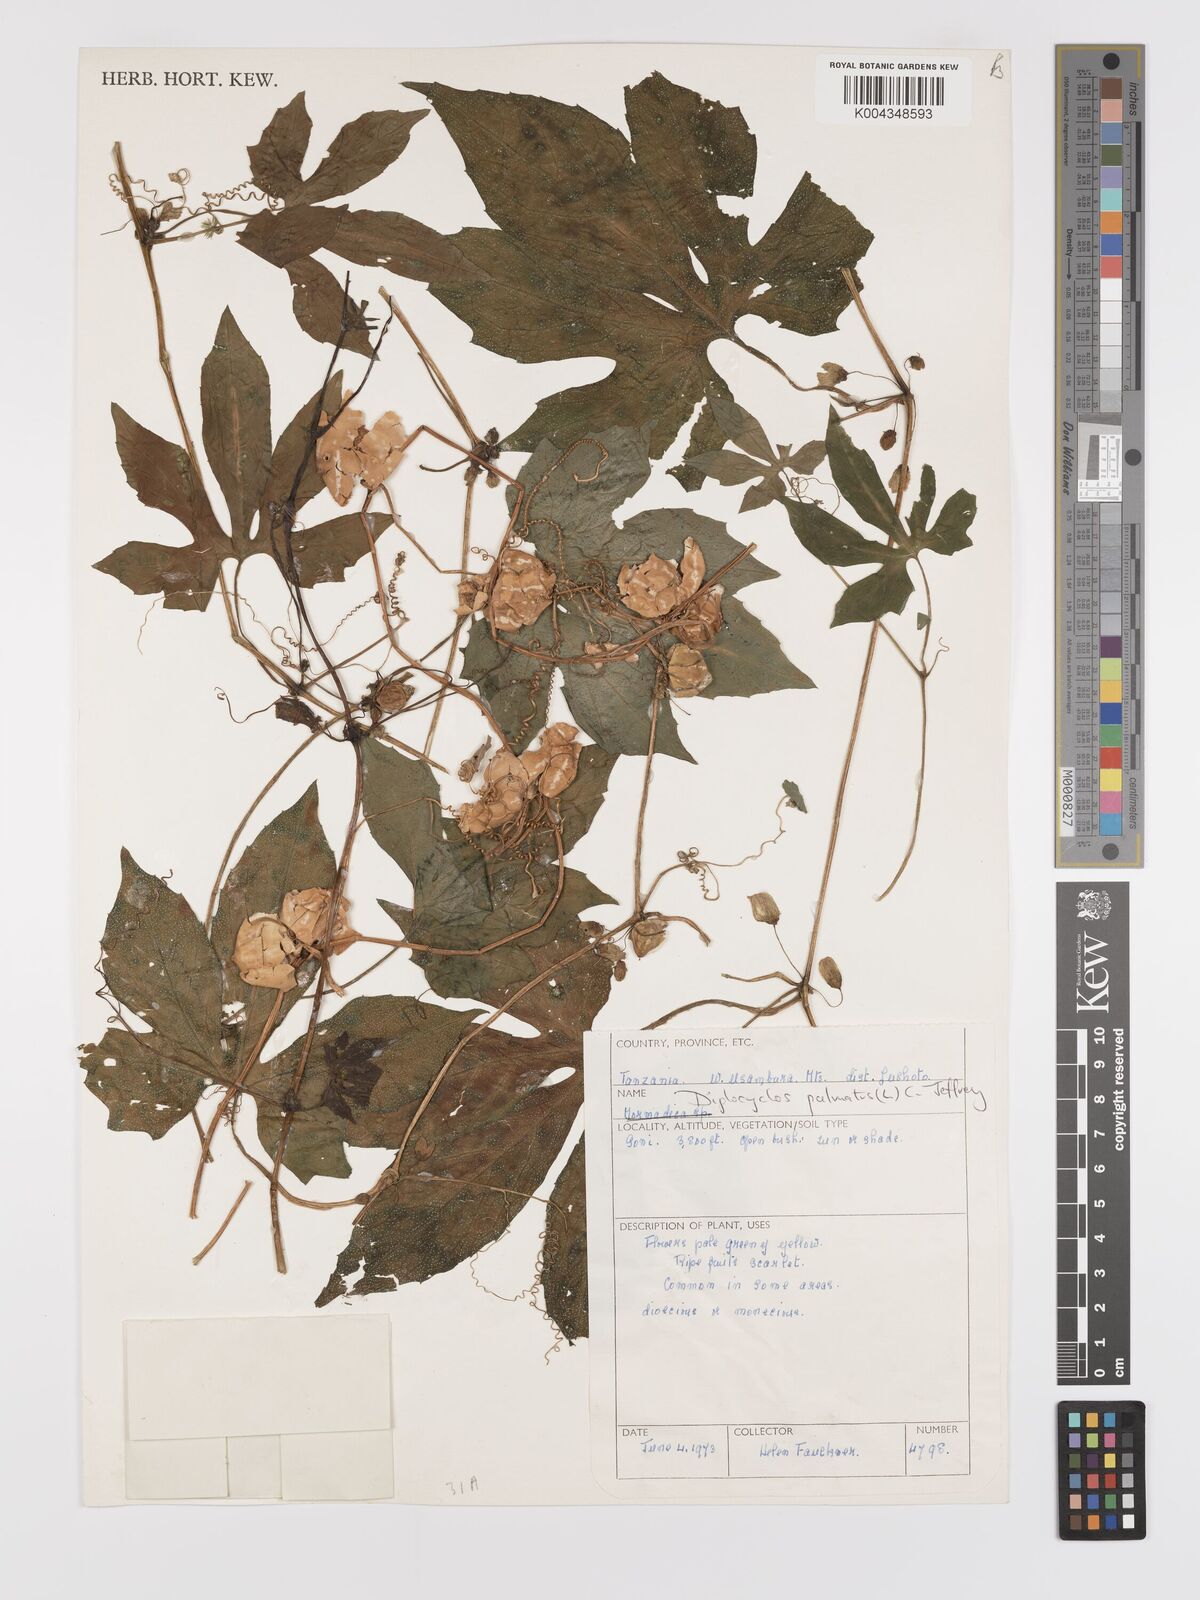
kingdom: Plantae
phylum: Tracheophyta
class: Magnoliopsida
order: Cucurbitales
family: Cucurbitaceae
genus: Diplocyclos
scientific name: Diplocyclos palmatus
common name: Striped-cucumber
